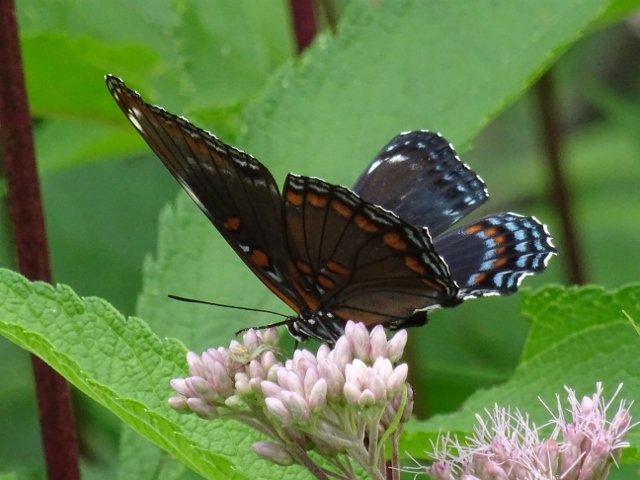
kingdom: Animalia
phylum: Arthropoda
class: Insecta
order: Lepidoptera
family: Nymphalidae
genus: Limenitis
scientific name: Limenitis astyanax
